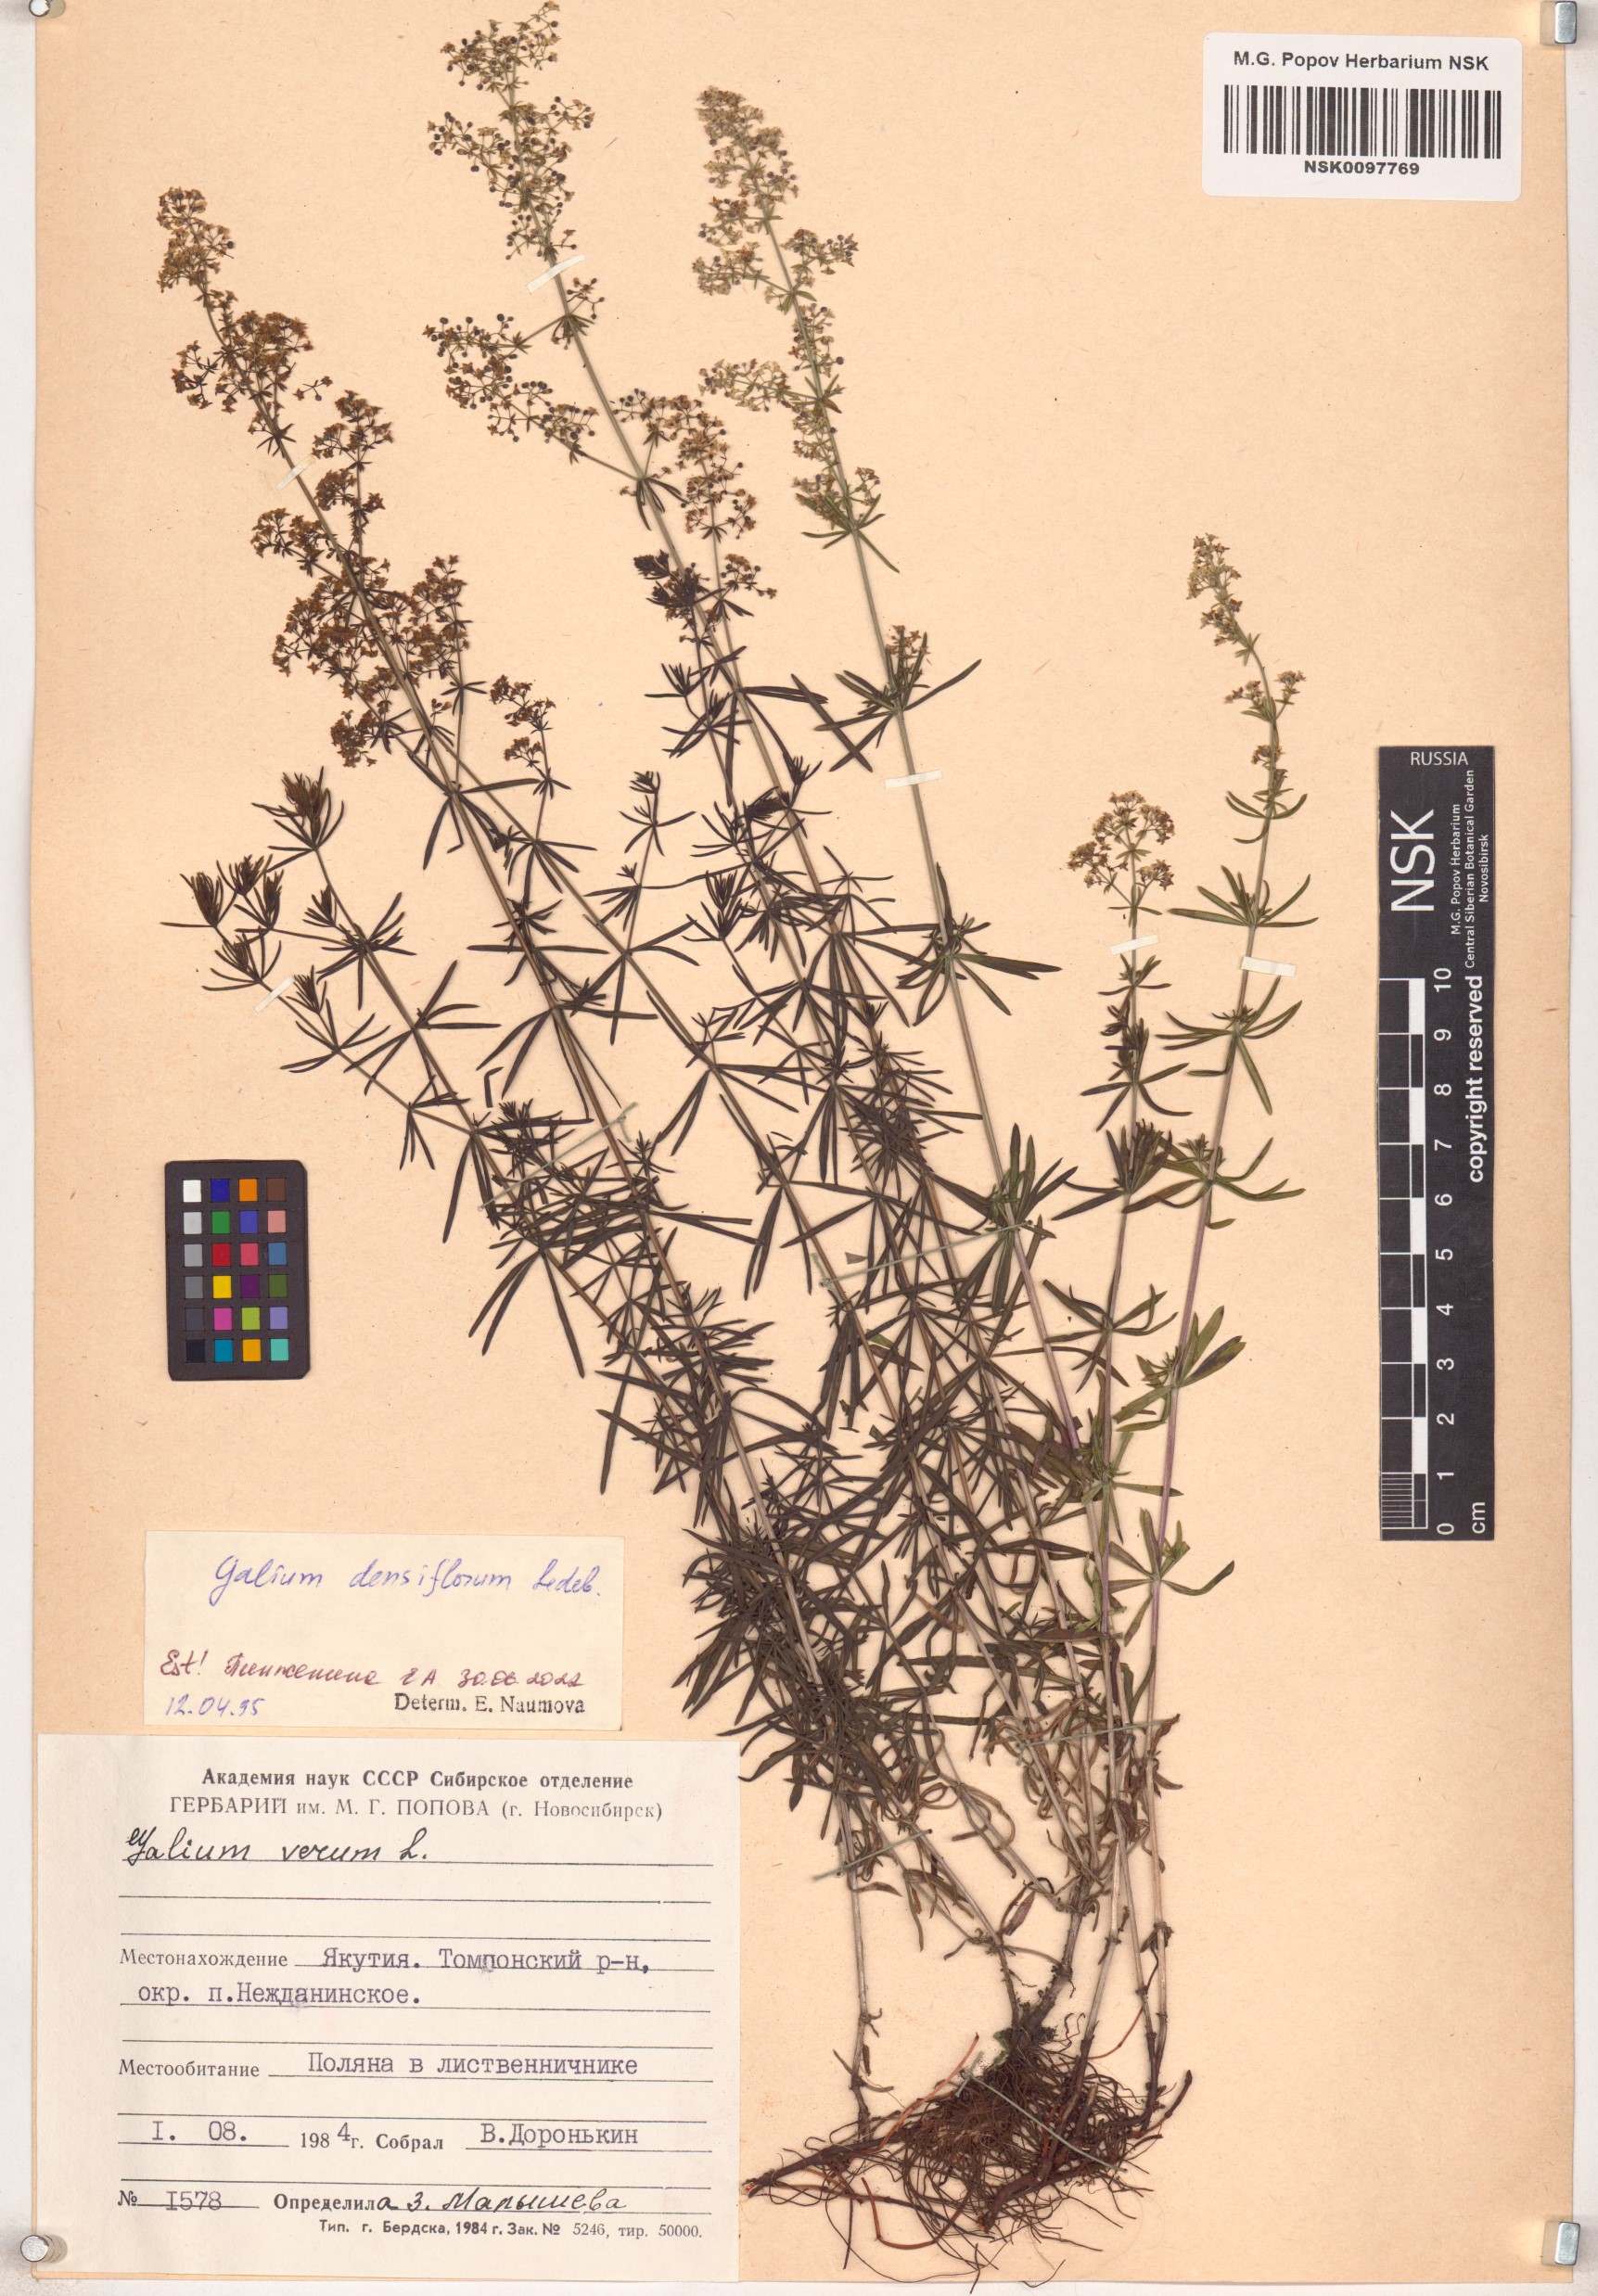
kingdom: Plantae
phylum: Tracheophyta
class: Magnoliopsida
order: Gentianales
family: Rubiaceae
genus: Galium
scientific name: Galium densiflorum
